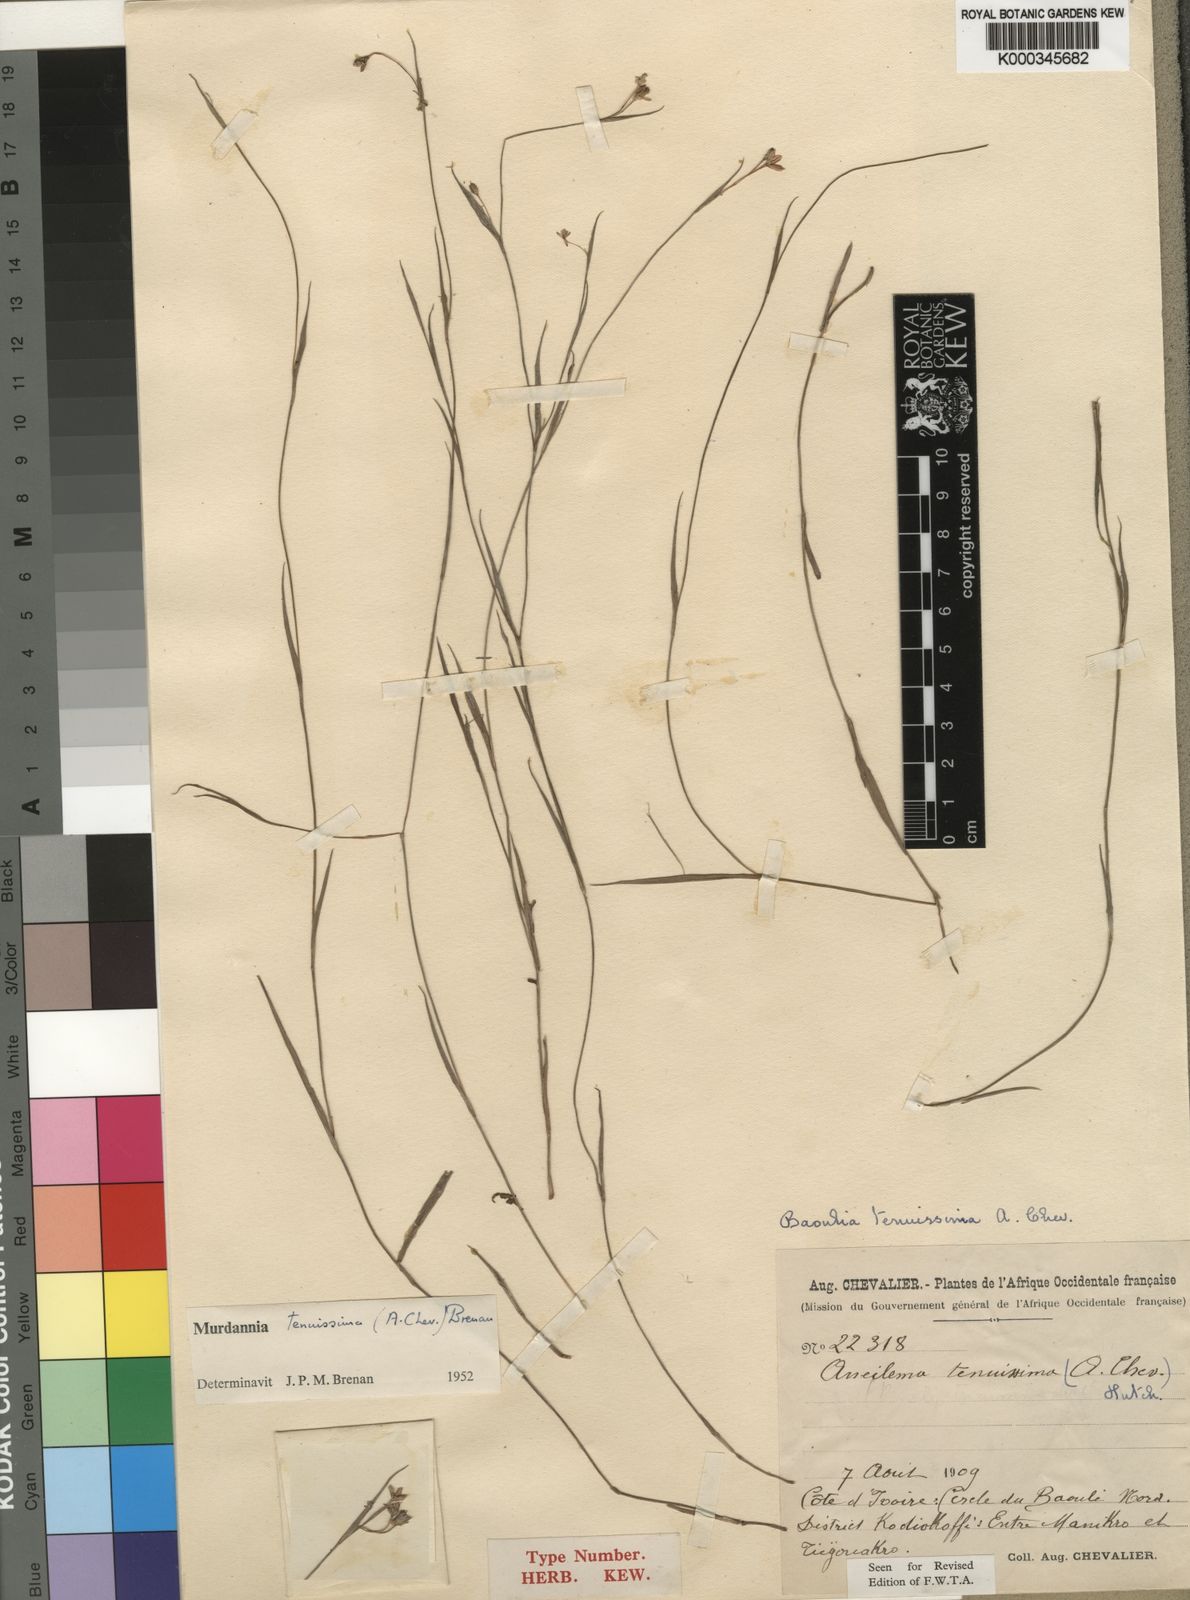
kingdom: Plantae
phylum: Tracheophyta
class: Liliopsida
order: Commelinales
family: Commelinaceae
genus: Murdannia
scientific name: Murdannia tenuissima
